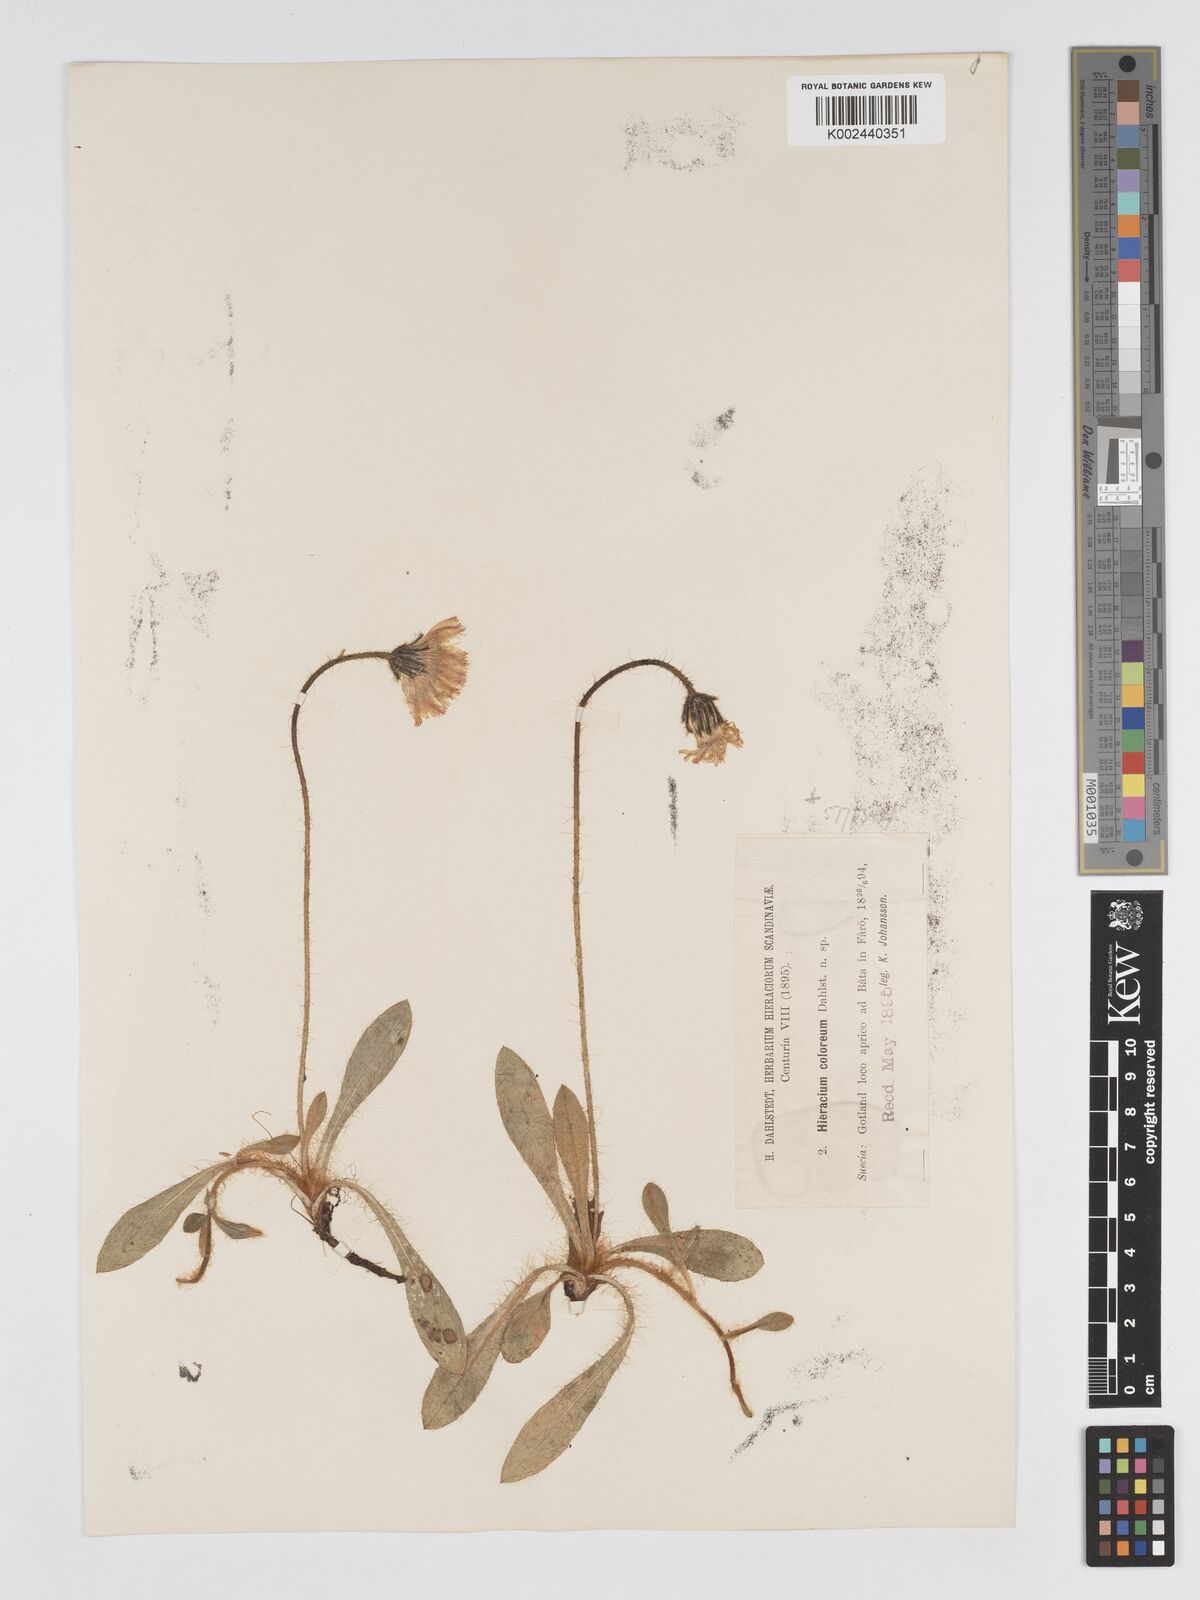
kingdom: Plantae
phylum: Tracheophyta
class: Magnoliopsida
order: Asterales
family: Asteraceae
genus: Pilosella
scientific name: Pilosella officinarum
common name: Mouse-ear hawkweed
